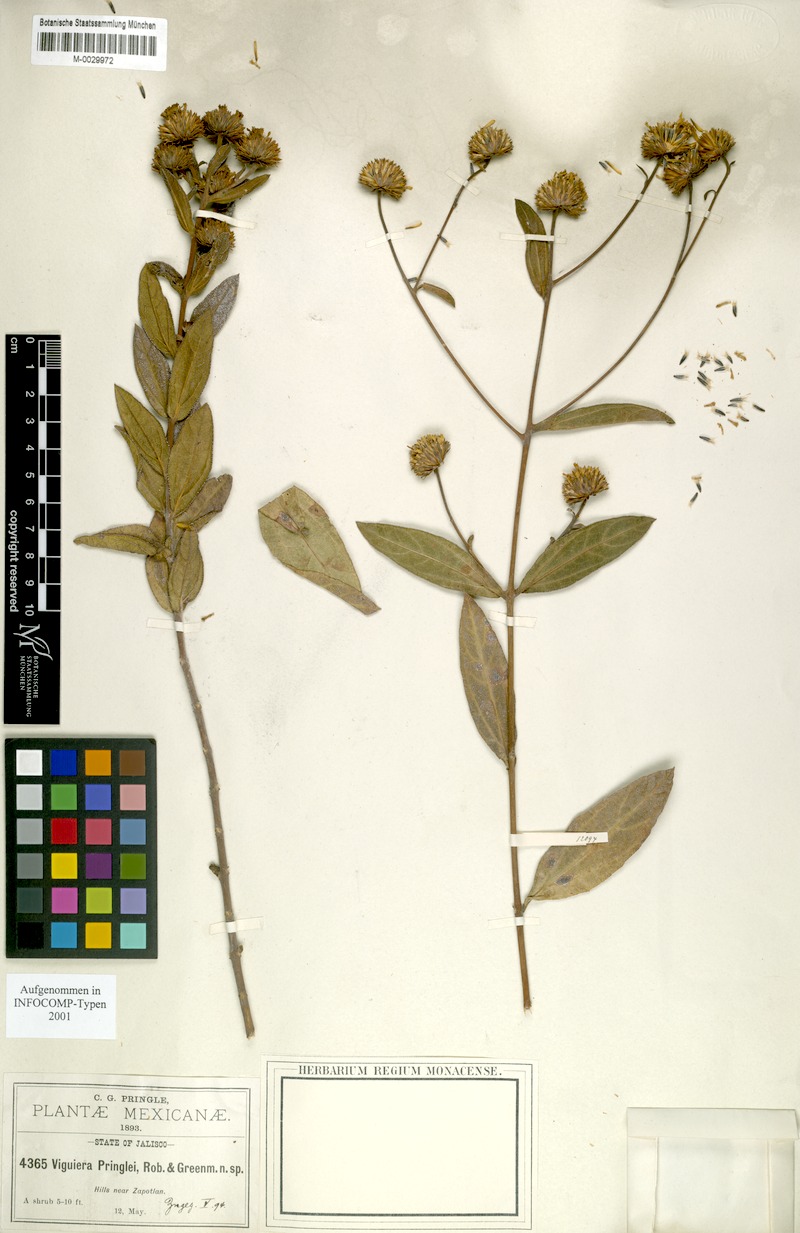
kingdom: Plantae
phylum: Tracheophyta
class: Magnoliopsida
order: Asterales
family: Asteraceae
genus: Aldama
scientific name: Aldama pringlei
